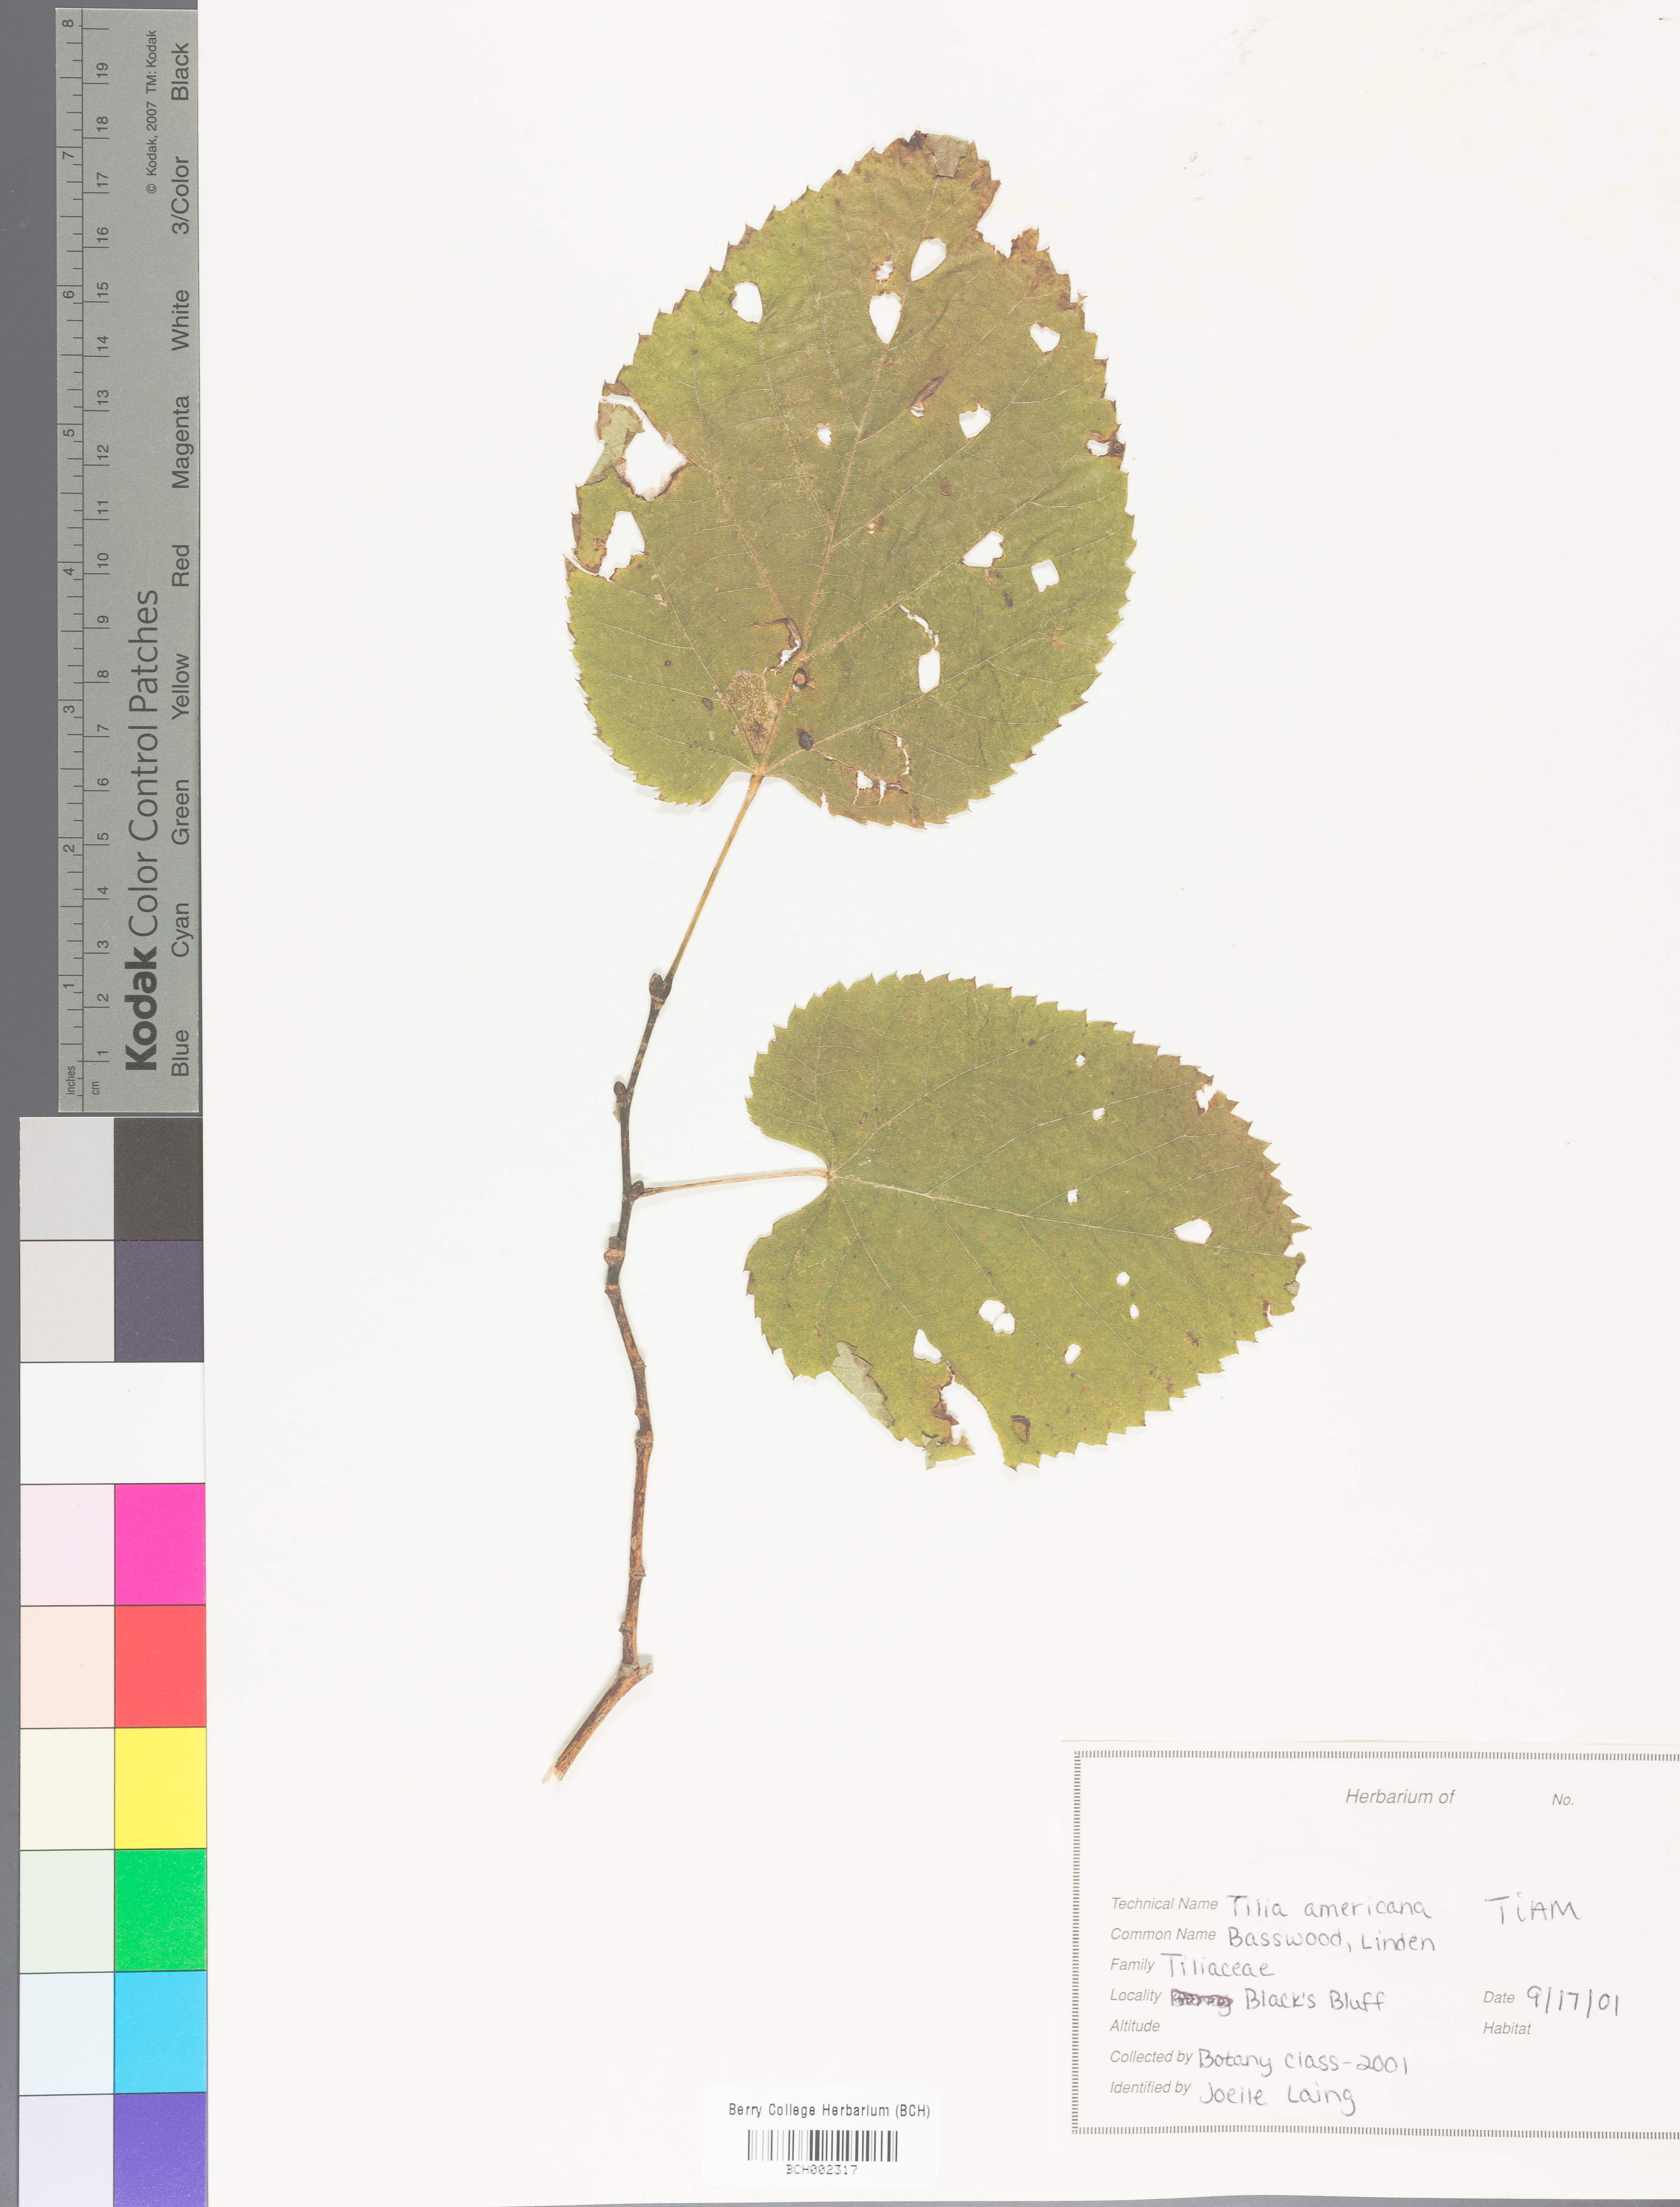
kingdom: Plantae
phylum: Tracheophyta
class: Magnoliopsida
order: Malvales
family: Malvaceae
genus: Tilia
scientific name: Tilia americana
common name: Basswood
